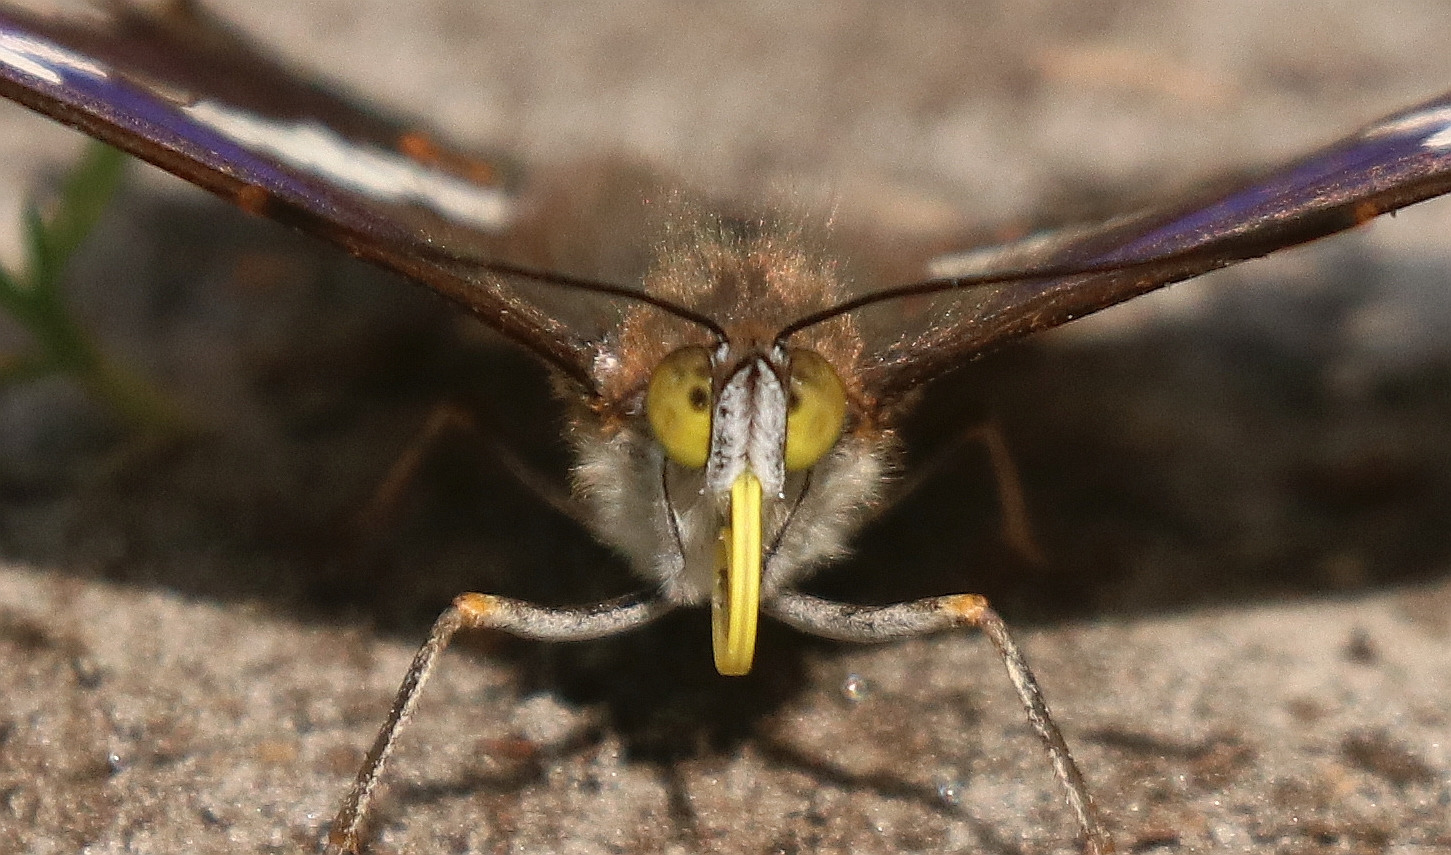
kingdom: Animalia
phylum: Arthropoda
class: Insecta
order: Lepidoptera
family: Nymphalidae
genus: Apatura
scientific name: Apatura iris
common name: Iris
